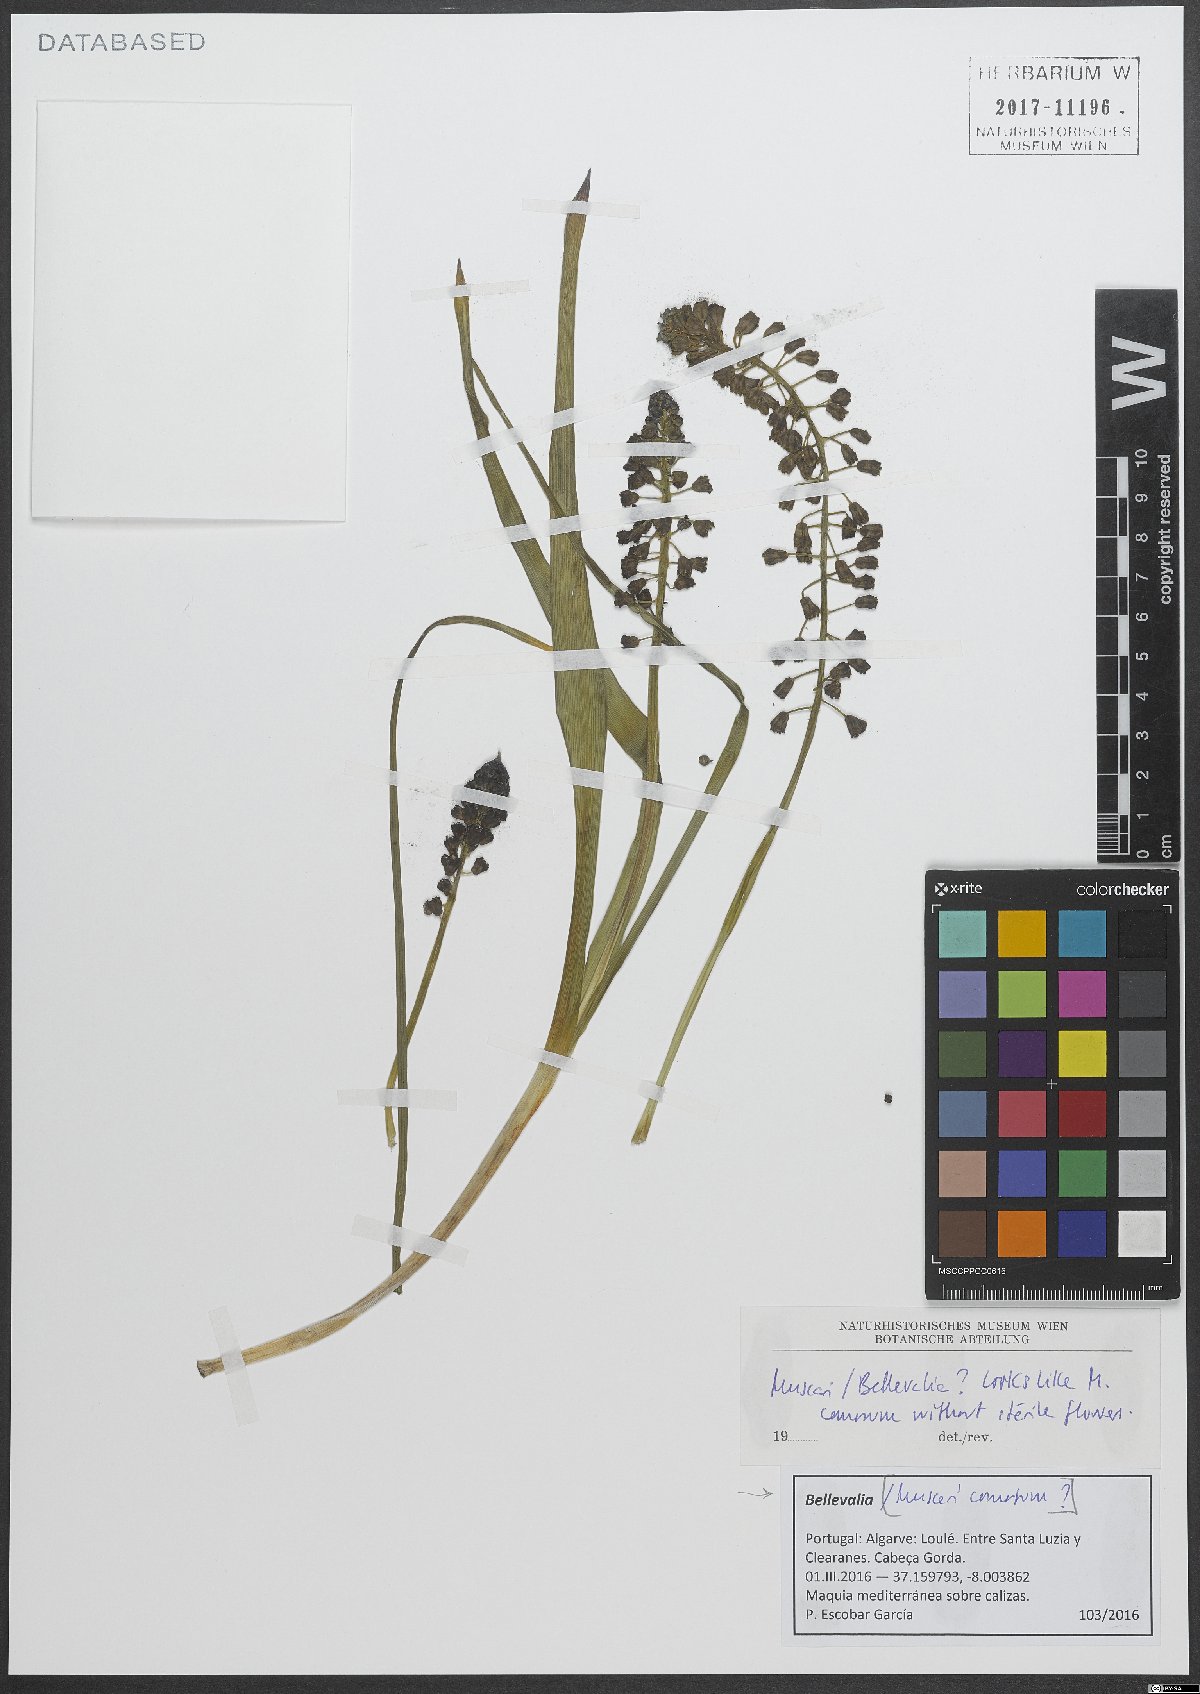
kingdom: Plantae
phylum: Tracheophyta
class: Liliopsida
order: Asparagales
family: Asparagaceae
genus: Bellevalia
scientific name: Bellevalia
